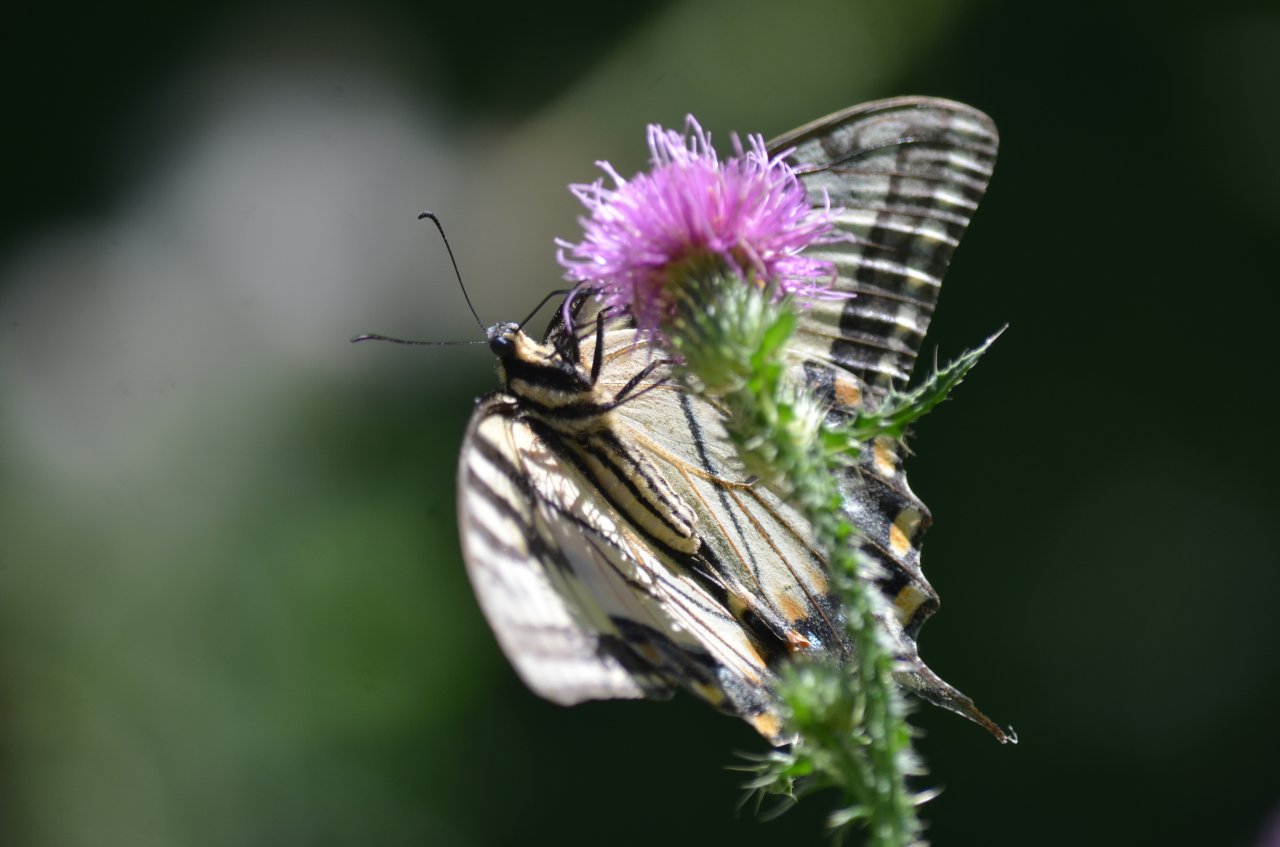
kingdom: Animalia
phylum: Arthropoda
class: Insecta
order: Lepidoptera
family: Papilionidae
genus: Pterourus
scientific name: Pterourus glaucus
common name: Eastern Tiger Swallowtail
